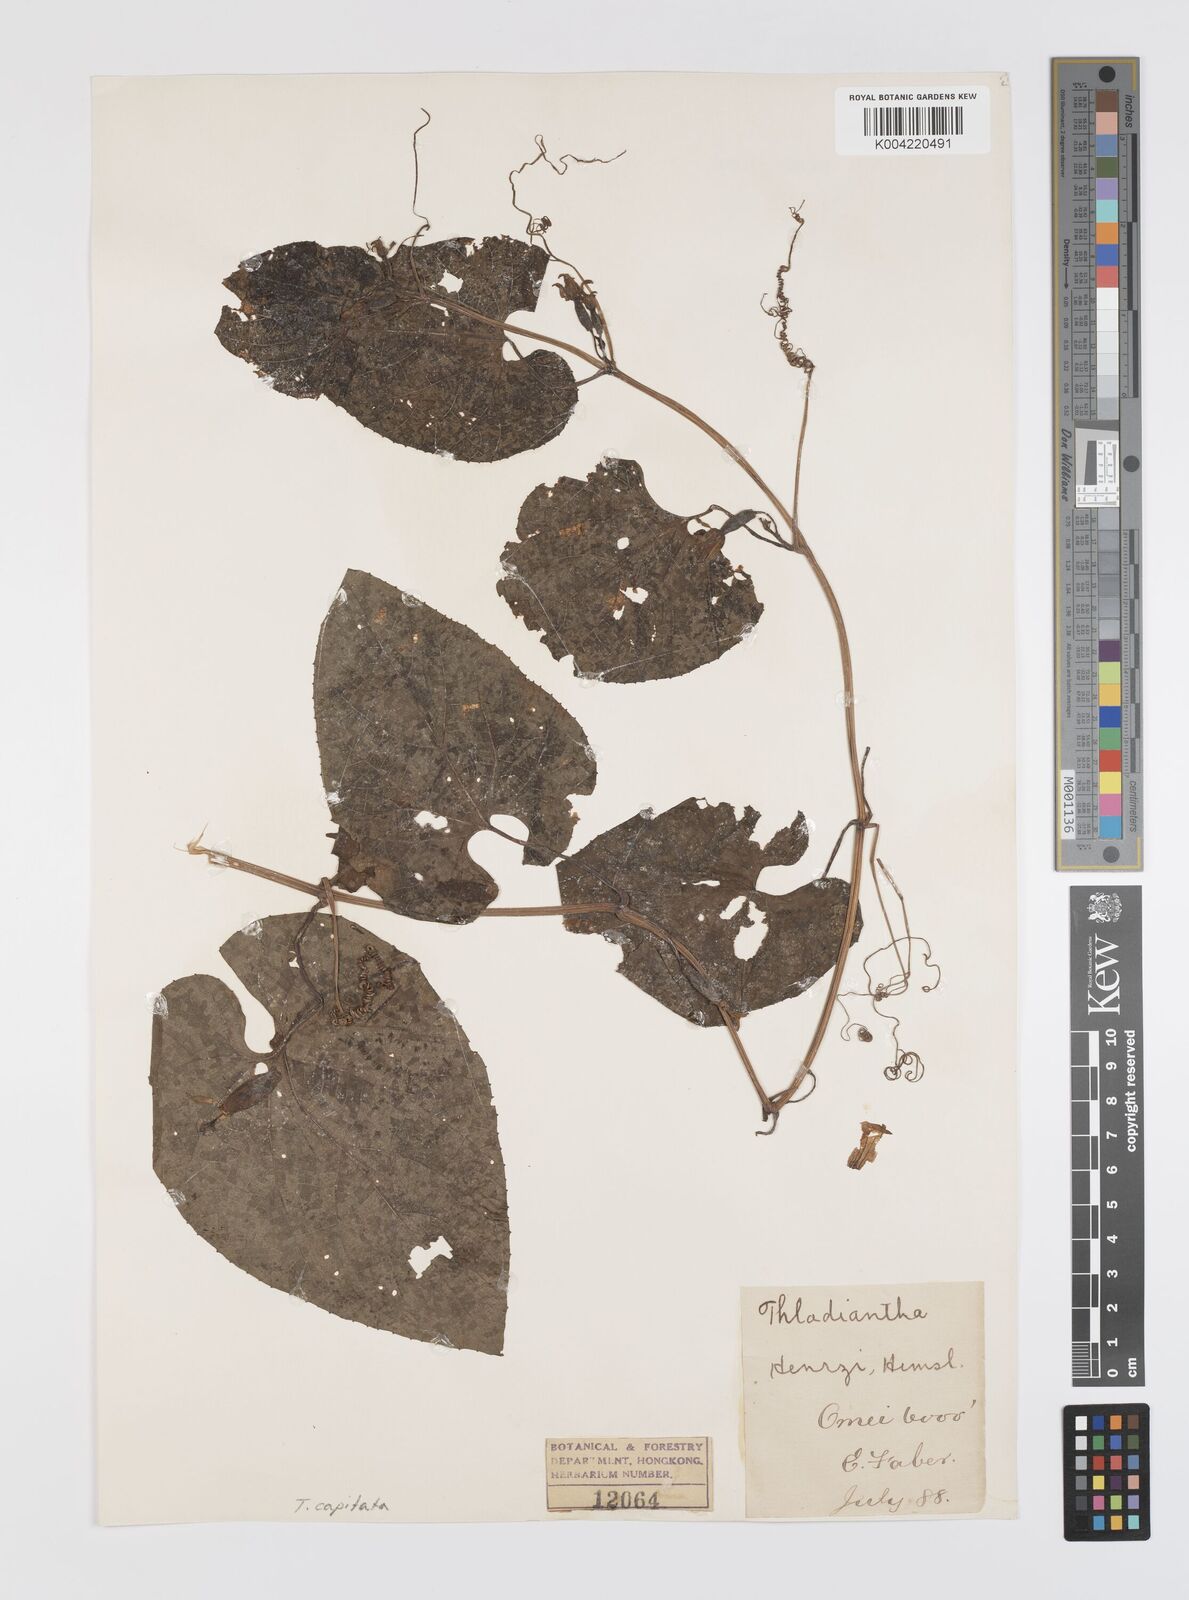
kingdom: Plantae
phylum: Tracheophyta
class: Magnoliopsida
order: Cucurbitales
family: Cucurbitaceae
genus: Thladiantha
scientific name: Thladiantha capitata
